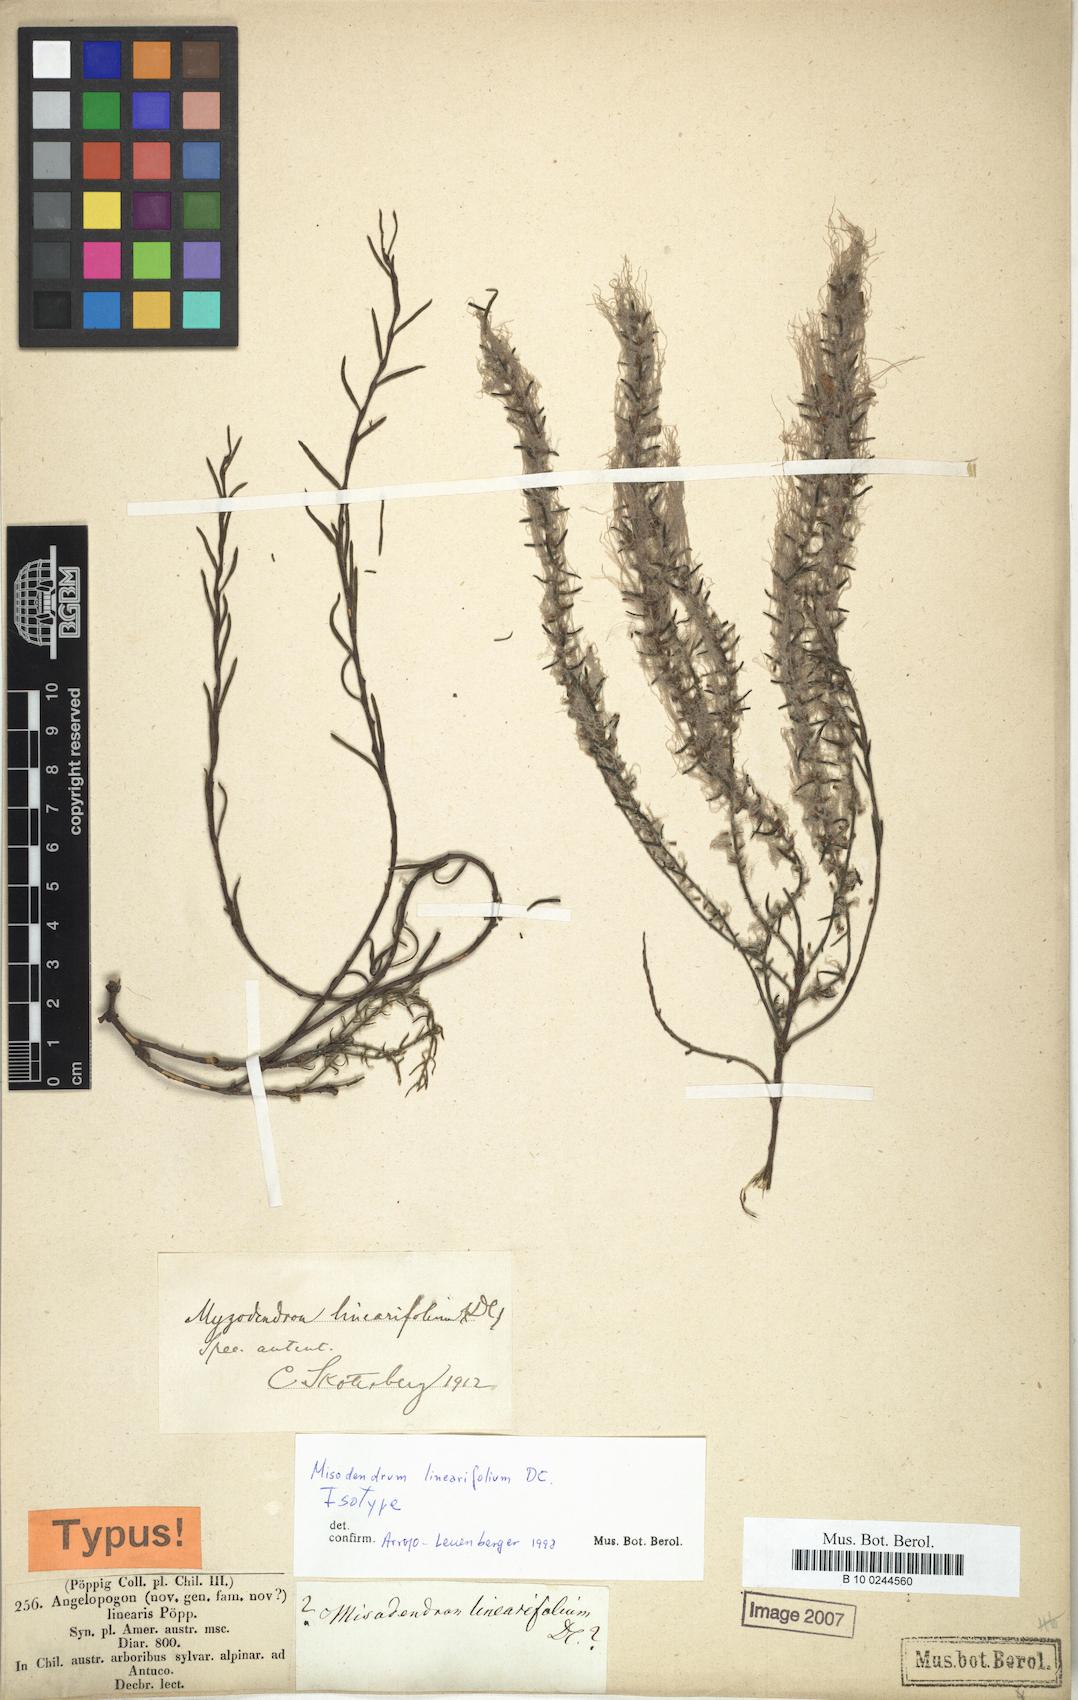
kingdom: Plantae
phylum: Tracheophyta
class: Magnoliopsida
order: Santalales
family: Misodendraceae
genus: Misodendrum
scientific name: Misodendrum linearifolium
